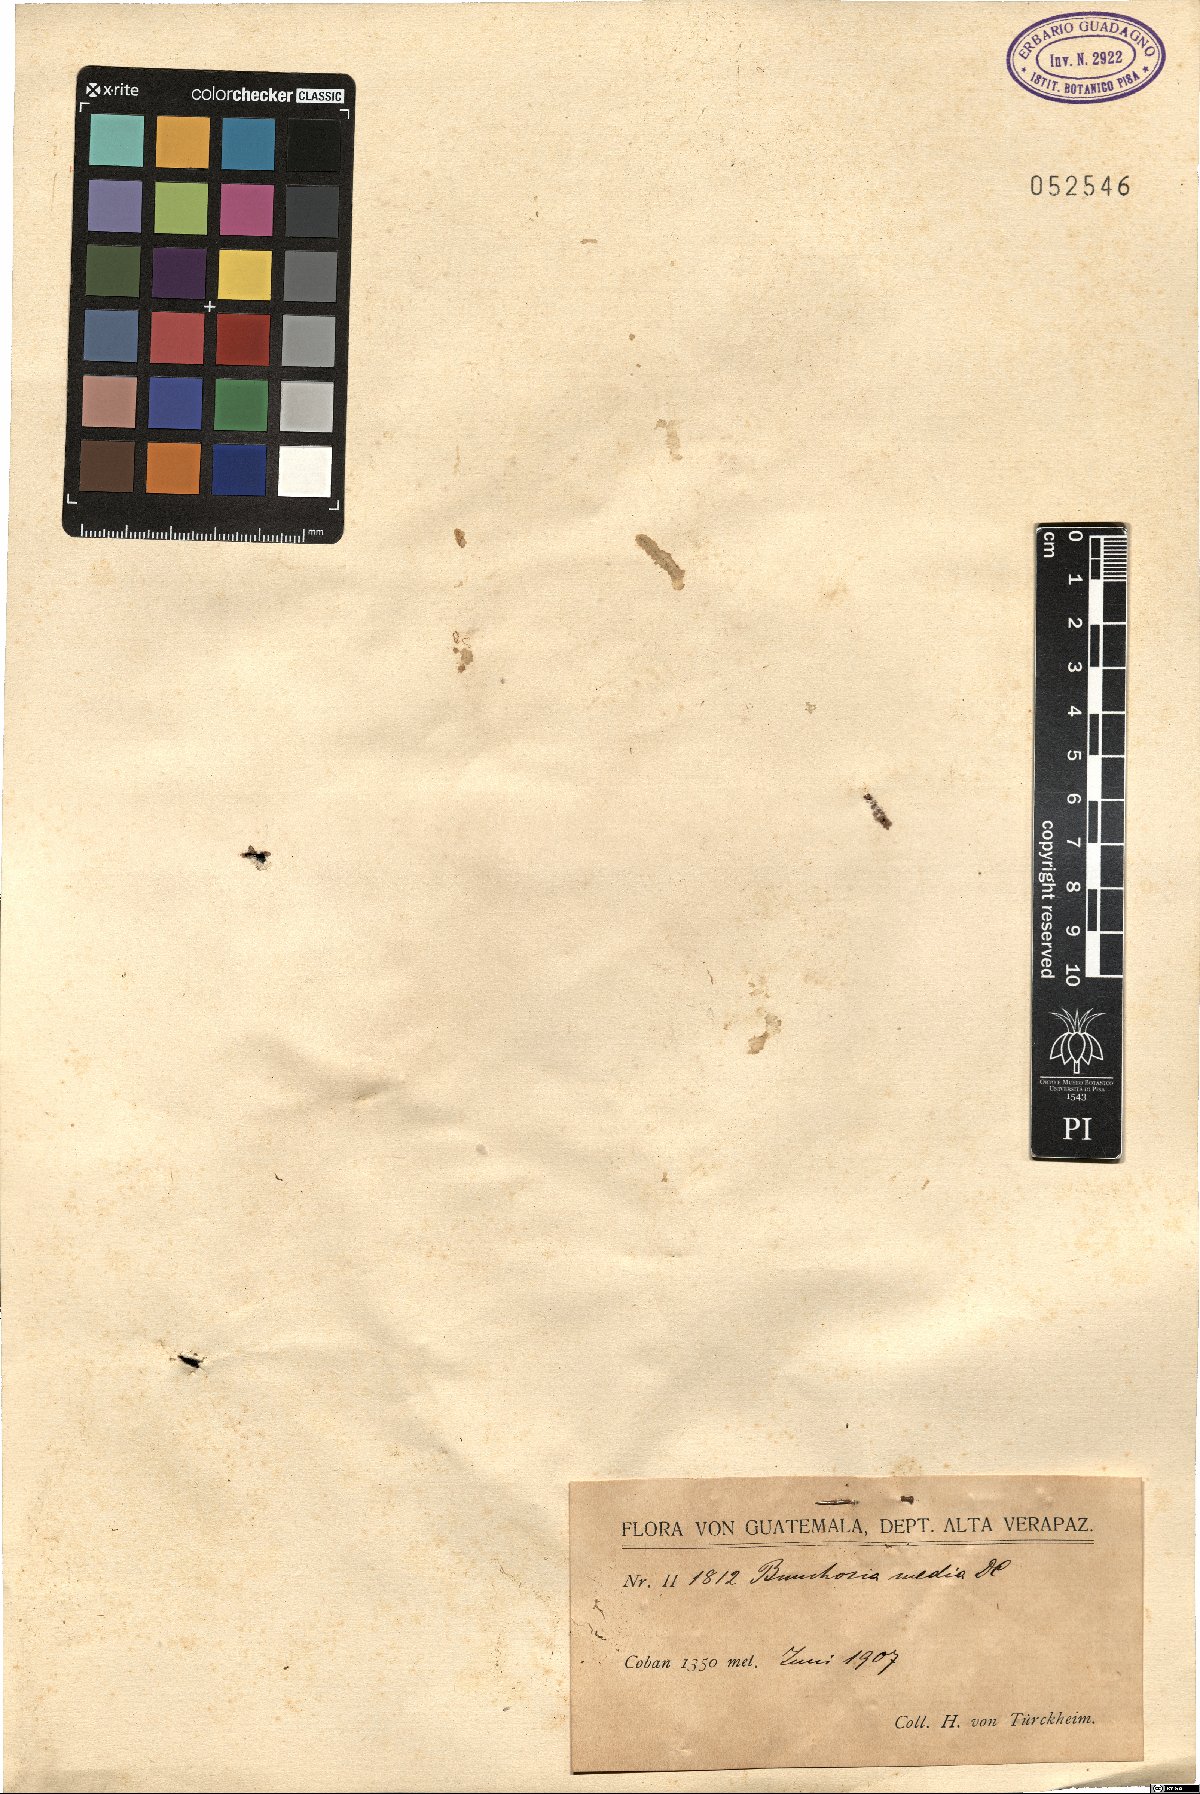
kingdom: Plantae
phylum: Tracheophyta
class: Magnoliopsida
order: Malpighiales
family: Malpighiaceae
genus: Bunchosia
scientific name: Bunchosia glandulosa
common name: Cafe forastero
